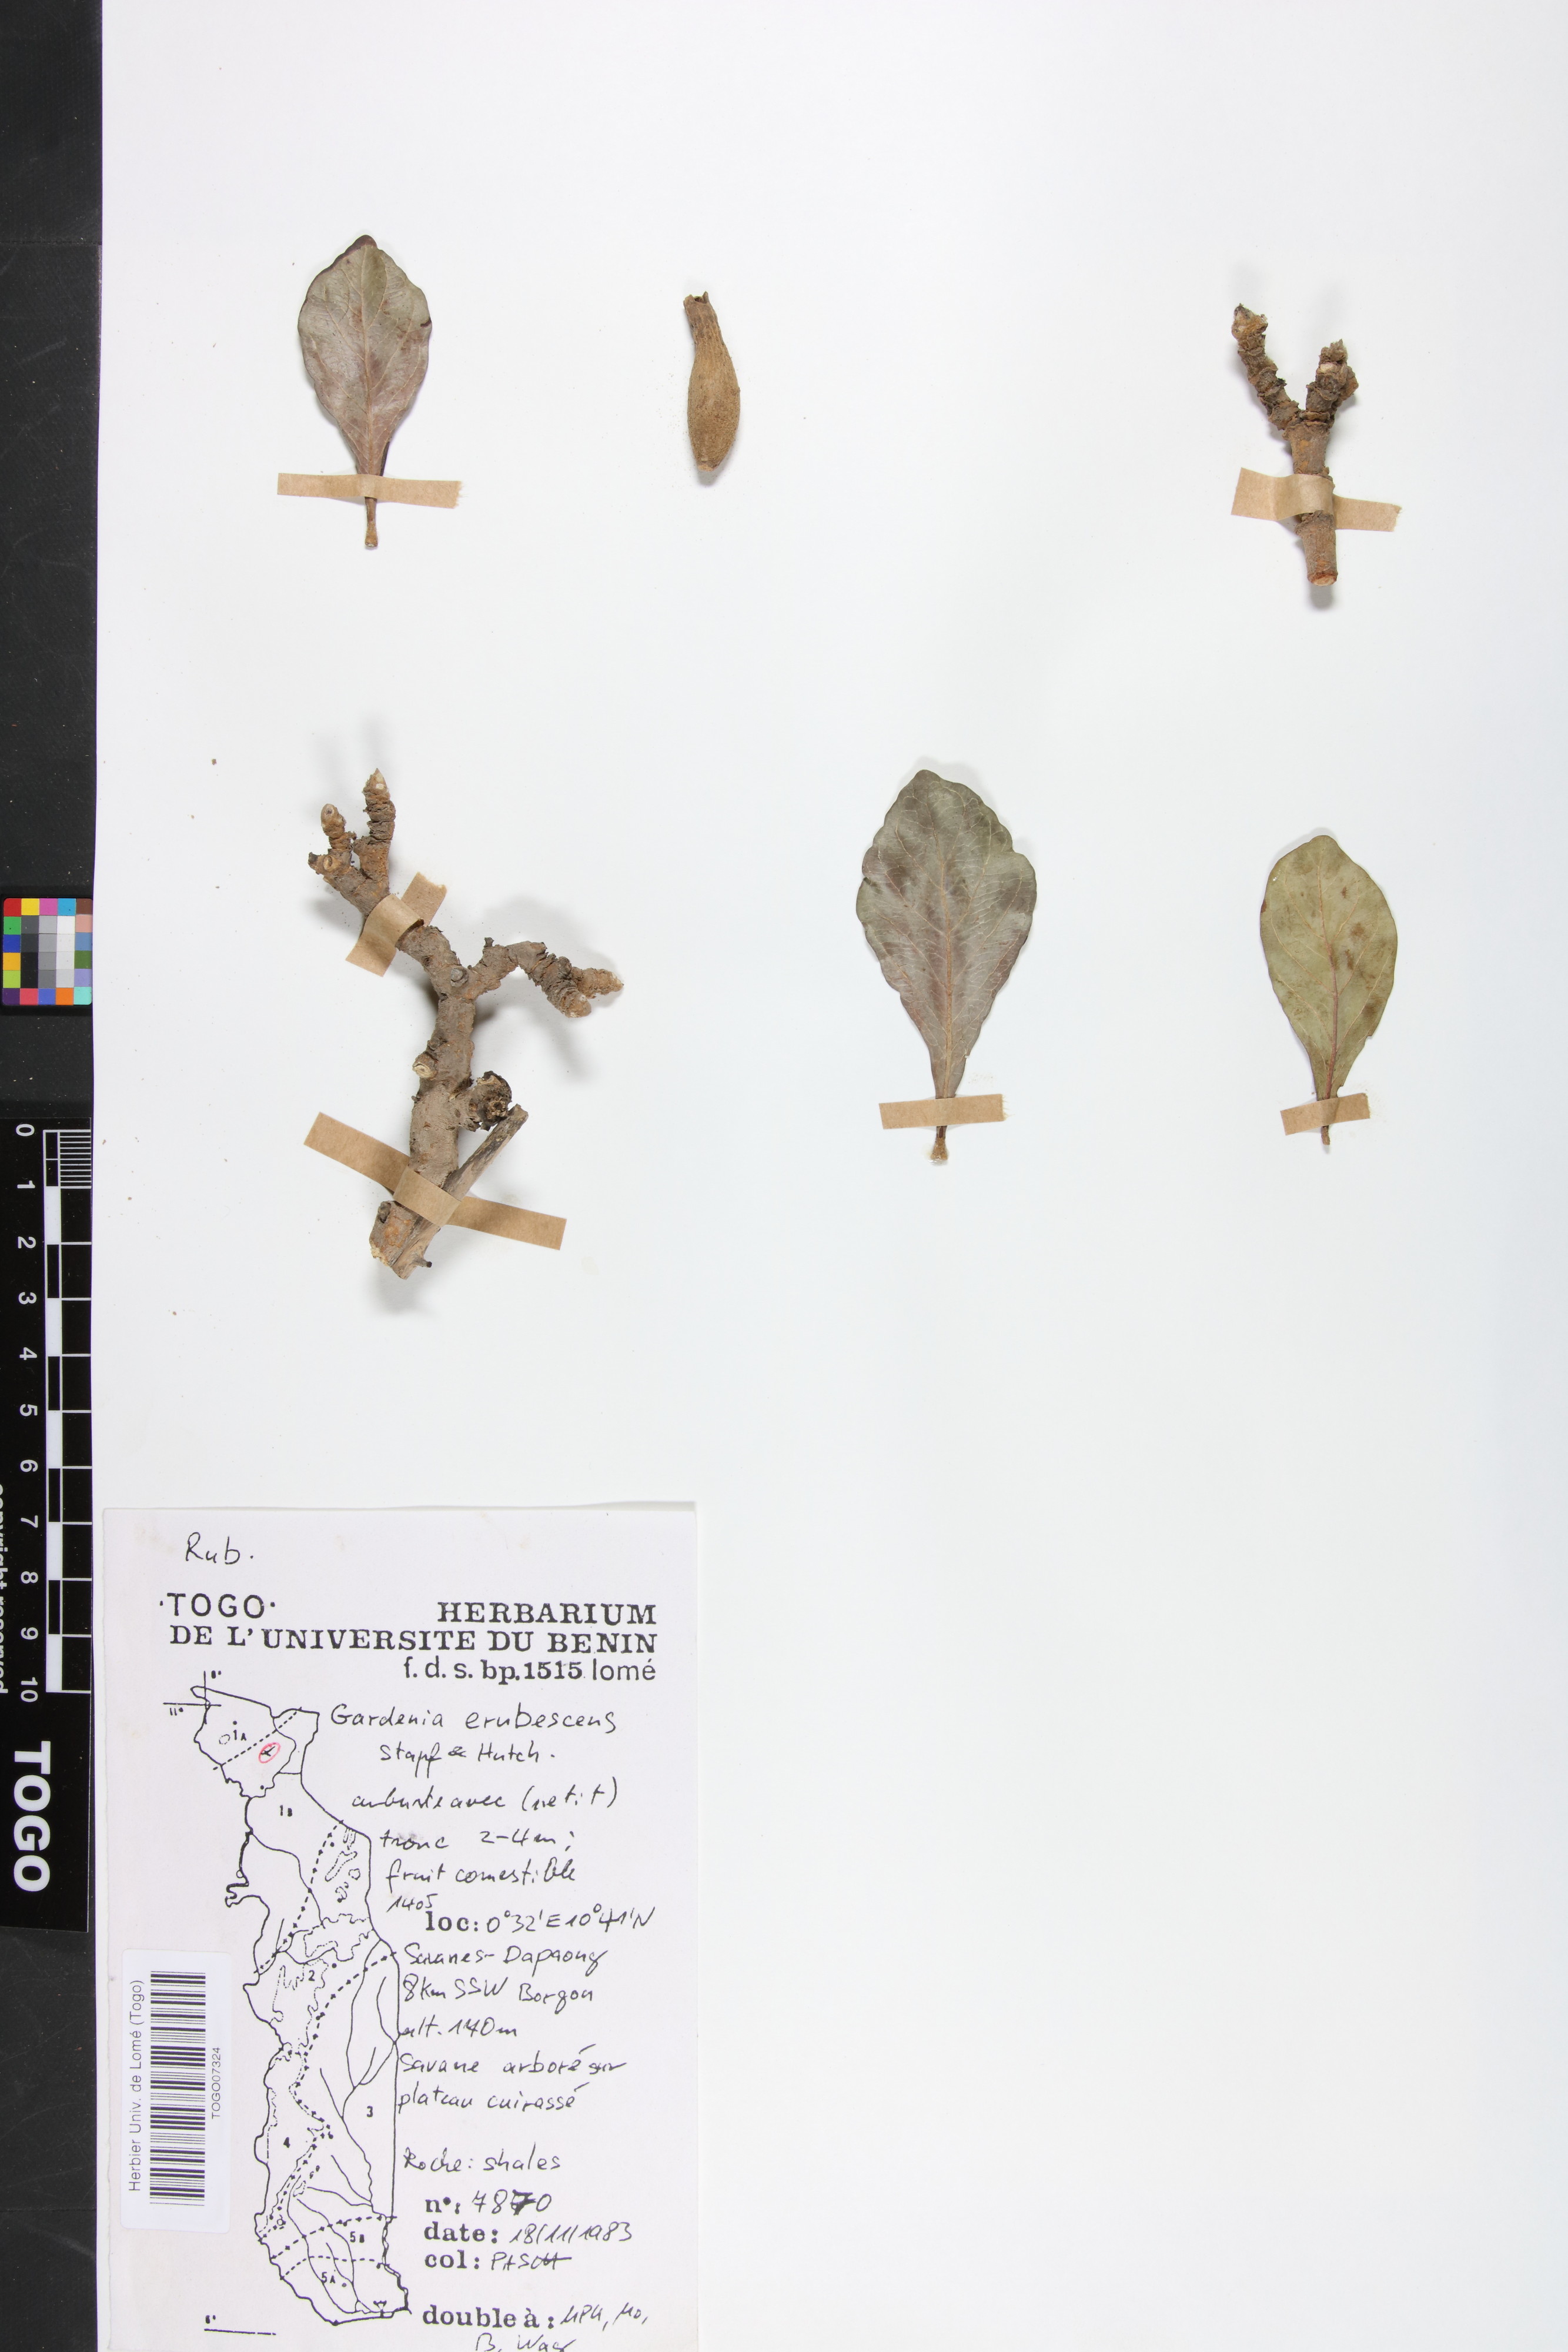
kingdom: Plantae
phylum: Tracheophyta
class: Magnoliopsida
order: Gentianales
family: Rubiaceae
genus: Gardenia
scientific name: Gardenia erubescens
